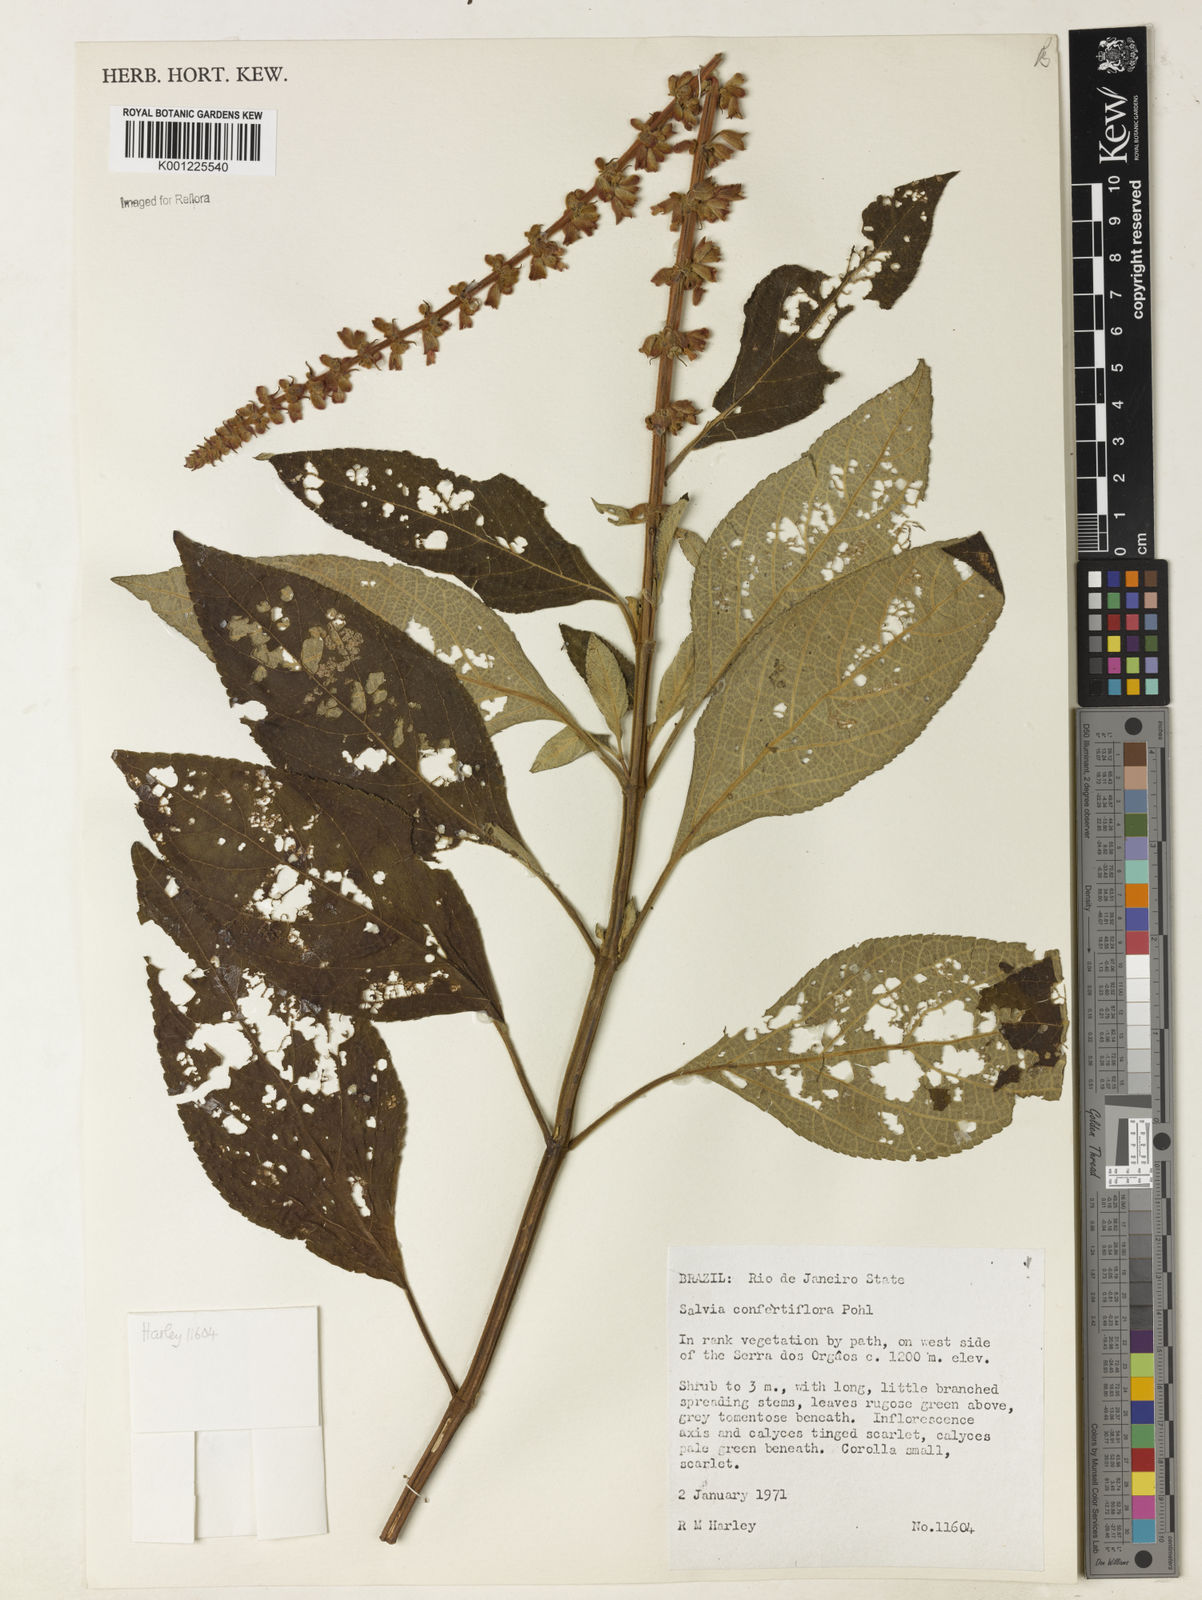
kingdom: Plantae
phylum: Tracheophyta
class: Magnoliopsida
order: Lamiales
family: Lamiaceae
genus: Salvia
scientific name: Salvia confertiflora
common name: Sabra-spike sage
